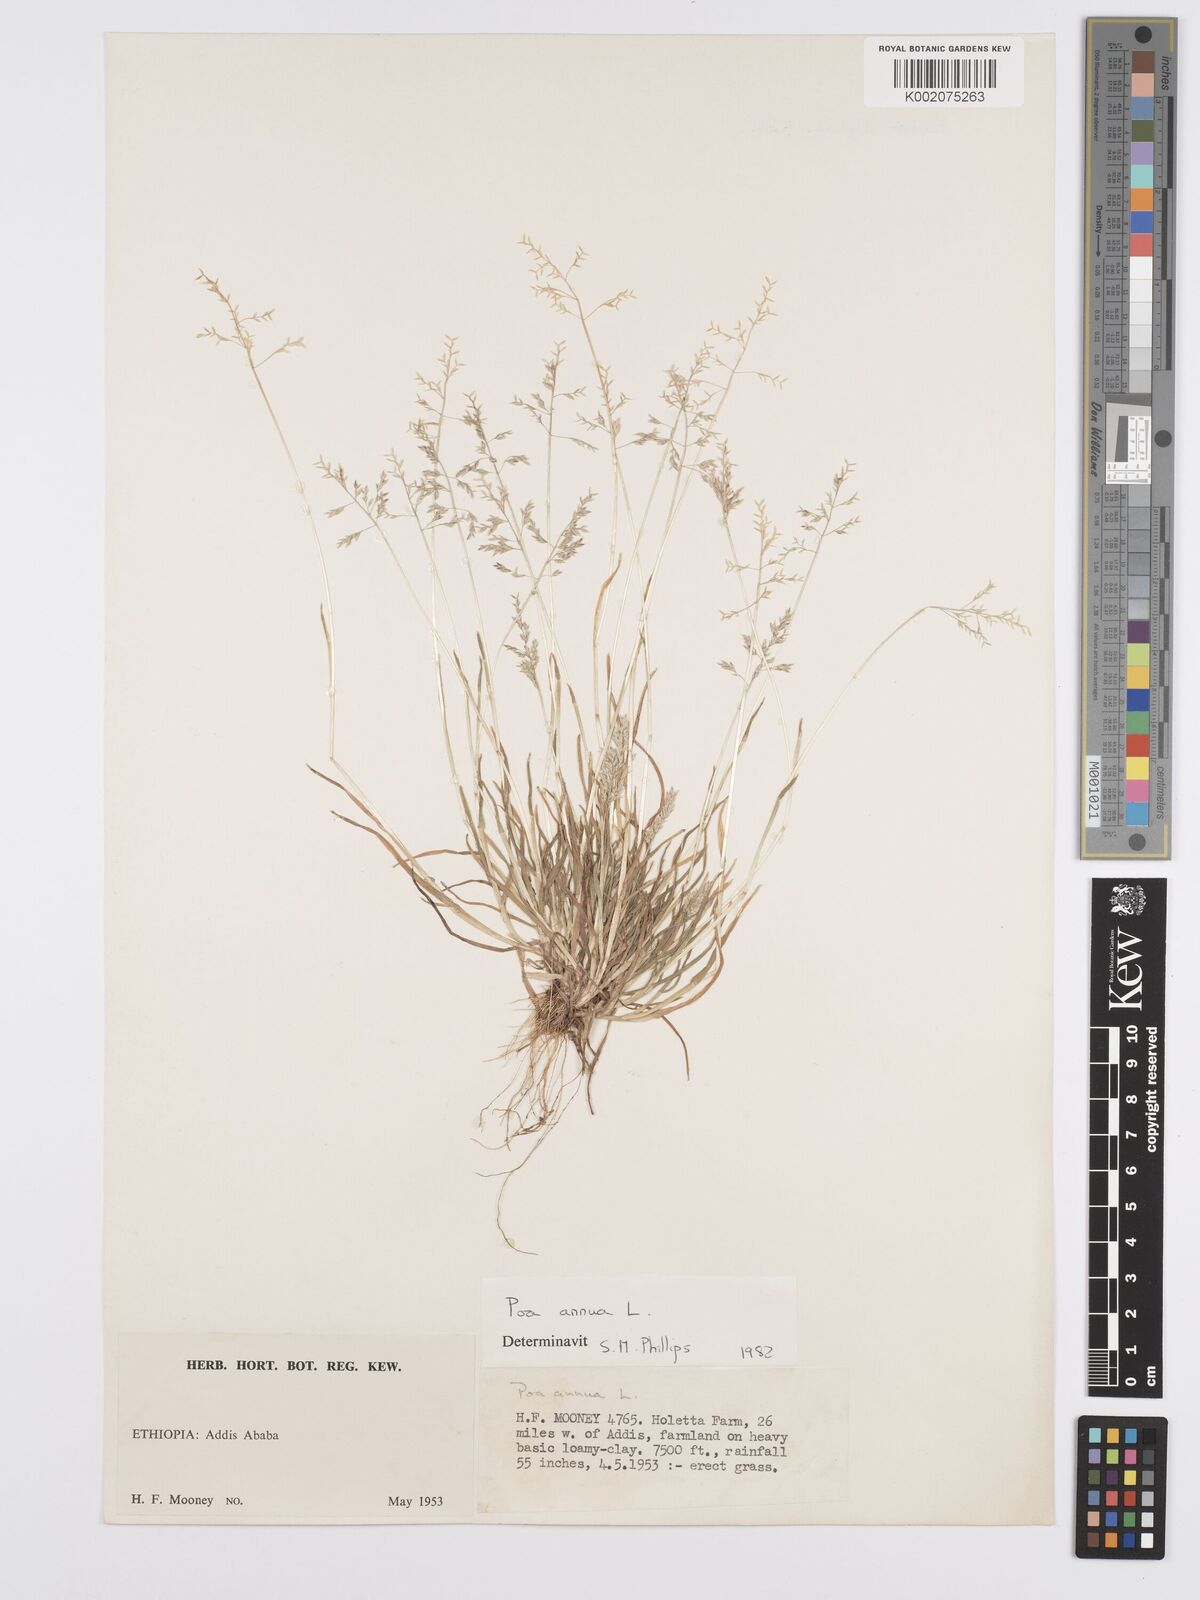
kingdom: Plantae
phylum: Tracheophyta
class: Liliopsida
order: Poales
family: Poaceae
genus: Poa
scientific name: Poa annua
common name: Annual bluegrass
